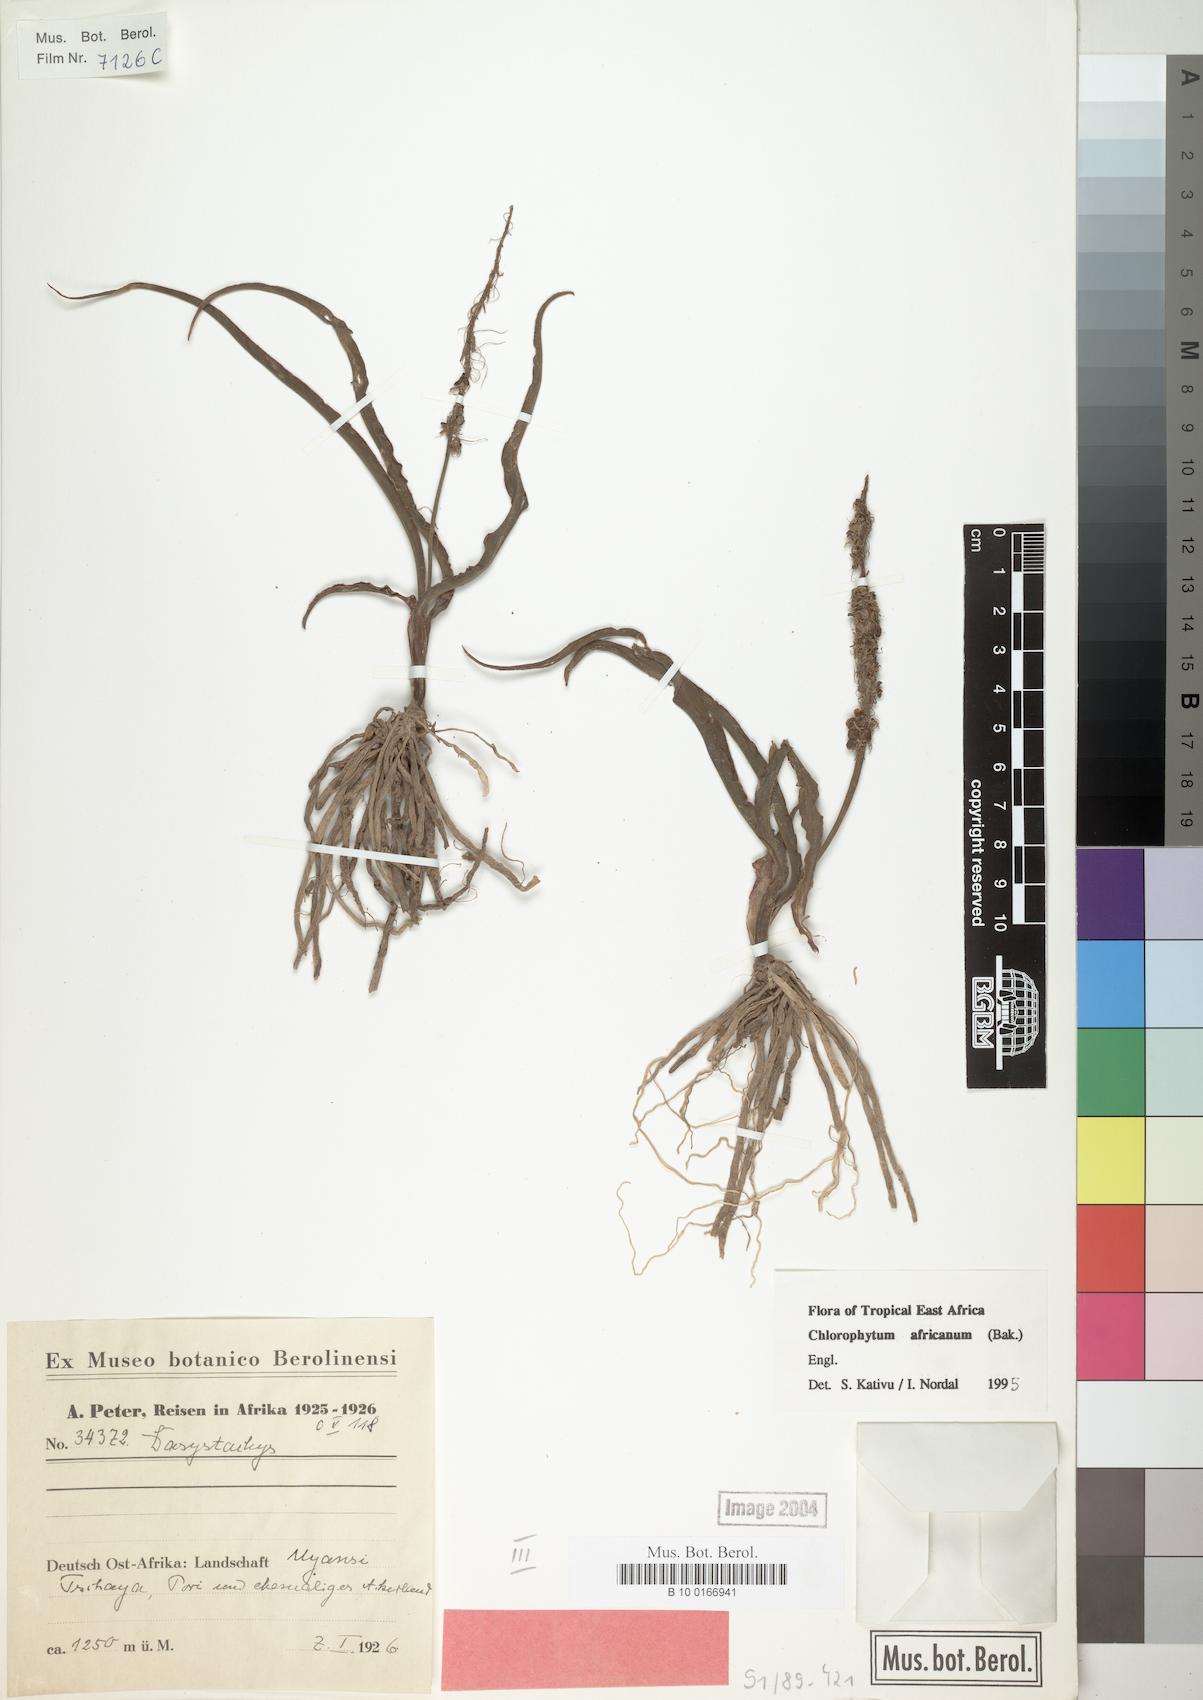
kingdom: Plantae
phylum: Tracheophyta
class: Liliopsida
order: Asparagales
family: Asparagaceae
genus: Chlorophytum
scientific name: Chlorophytum africanum
